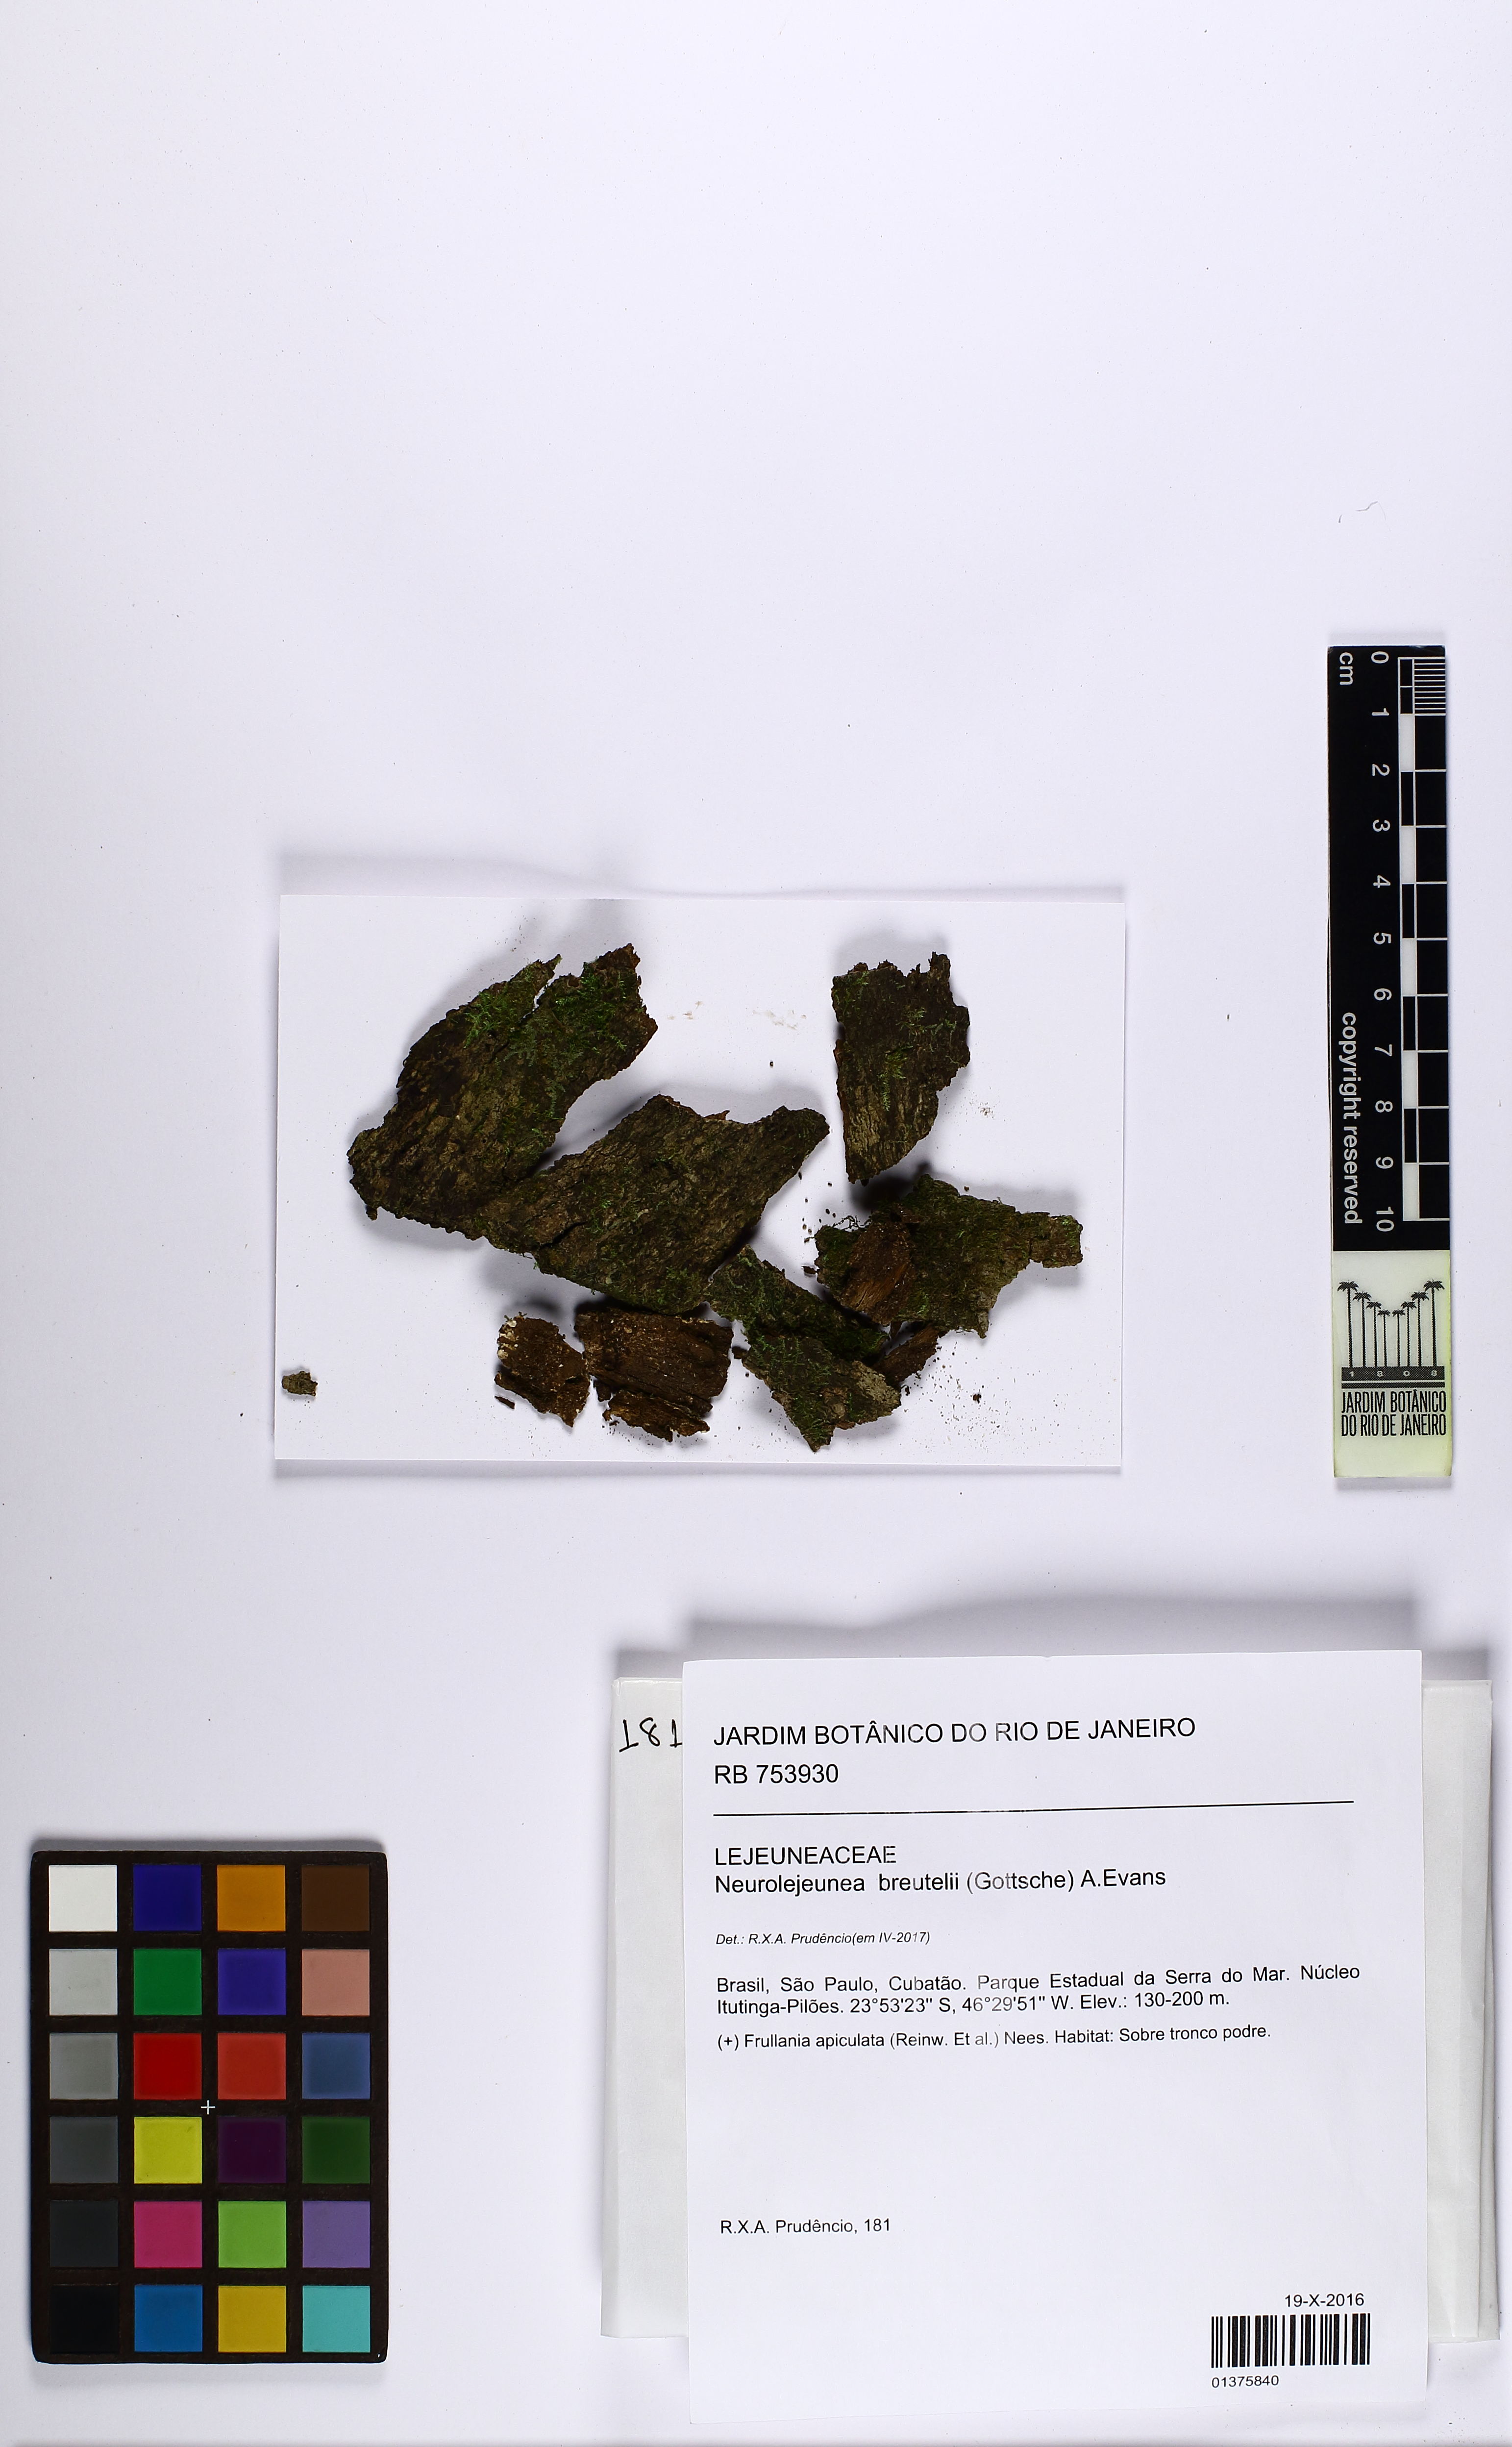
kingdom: Plantae
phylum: Marchantiophyta
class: Jungermanniopsida
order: Porellales
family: Lejeuneaceae
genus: Neurolejeunea
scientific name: Neurolejeunea breutelii
